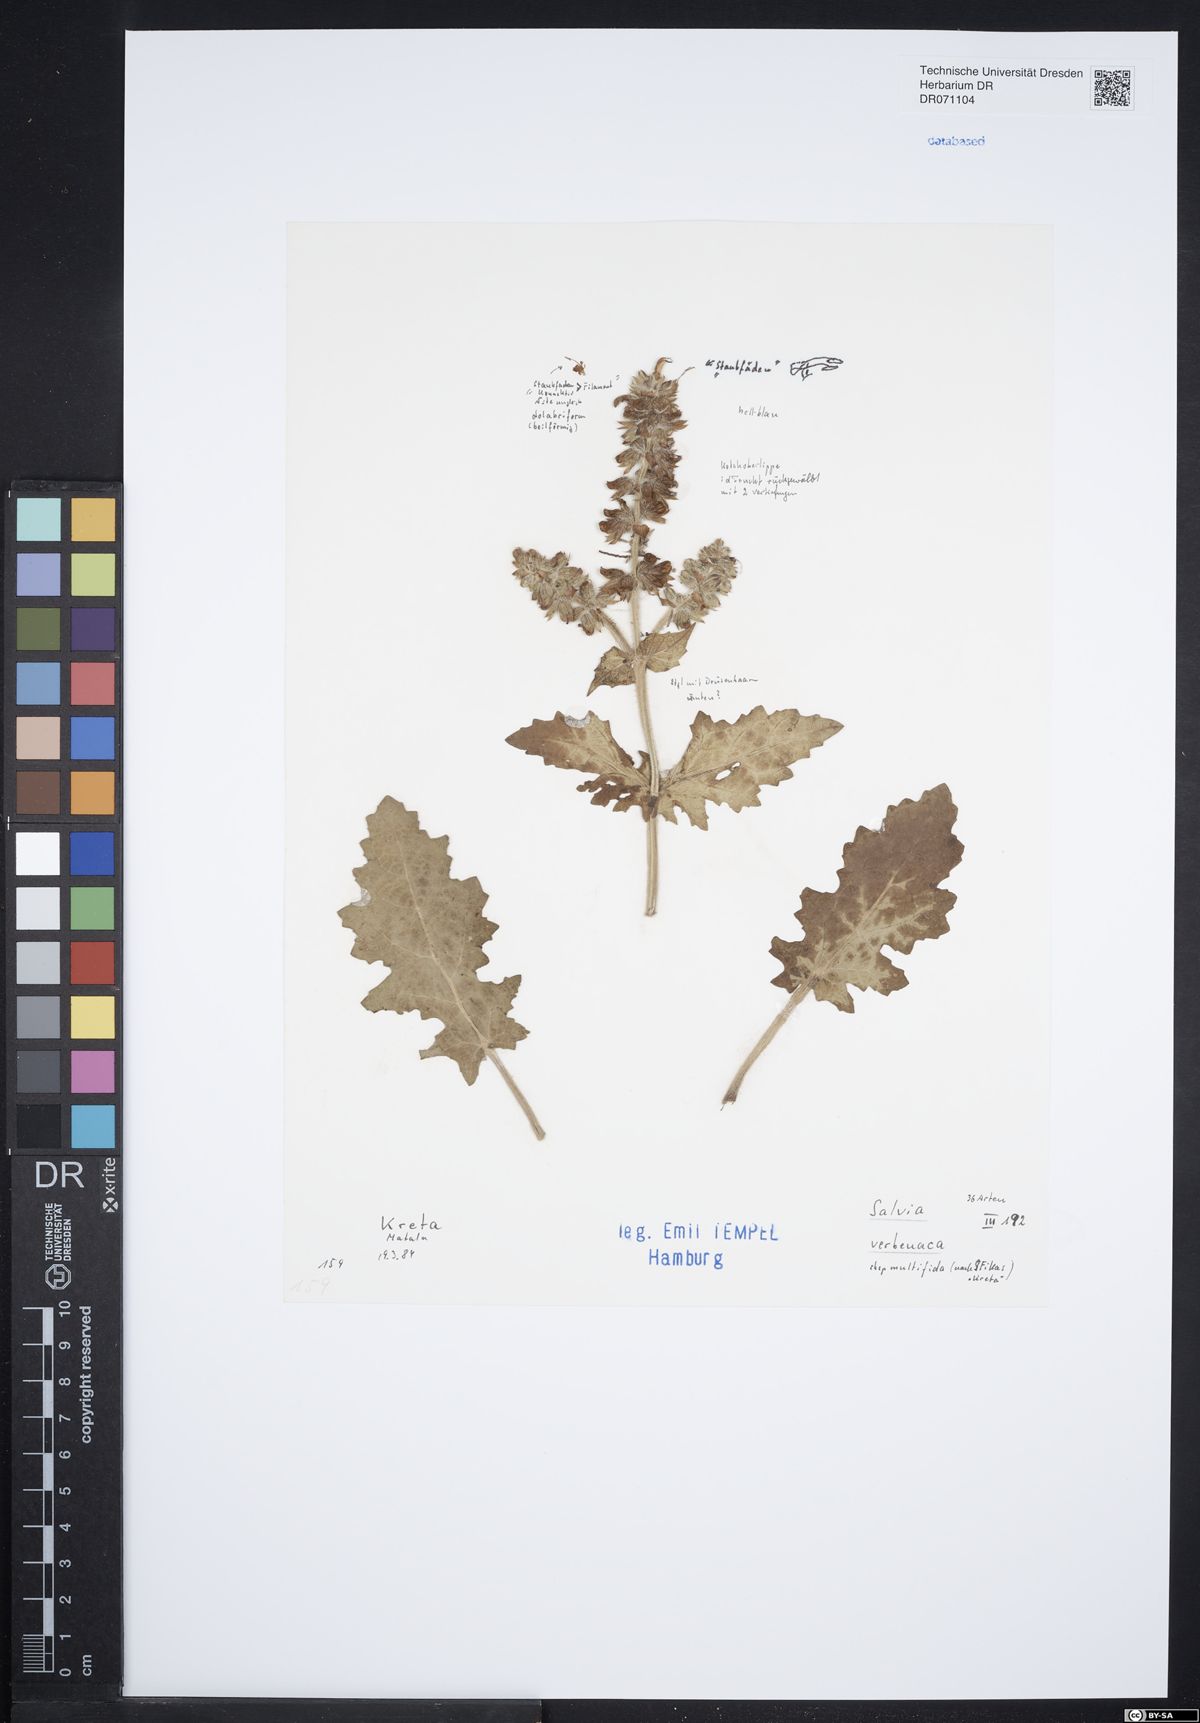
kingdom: Plantae
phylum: Tracheophyta
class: Magnoliopsida
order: Lamiales
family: Lamiaceae
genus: Salvia
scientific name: Salvia verbenaca
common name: Wild clary
